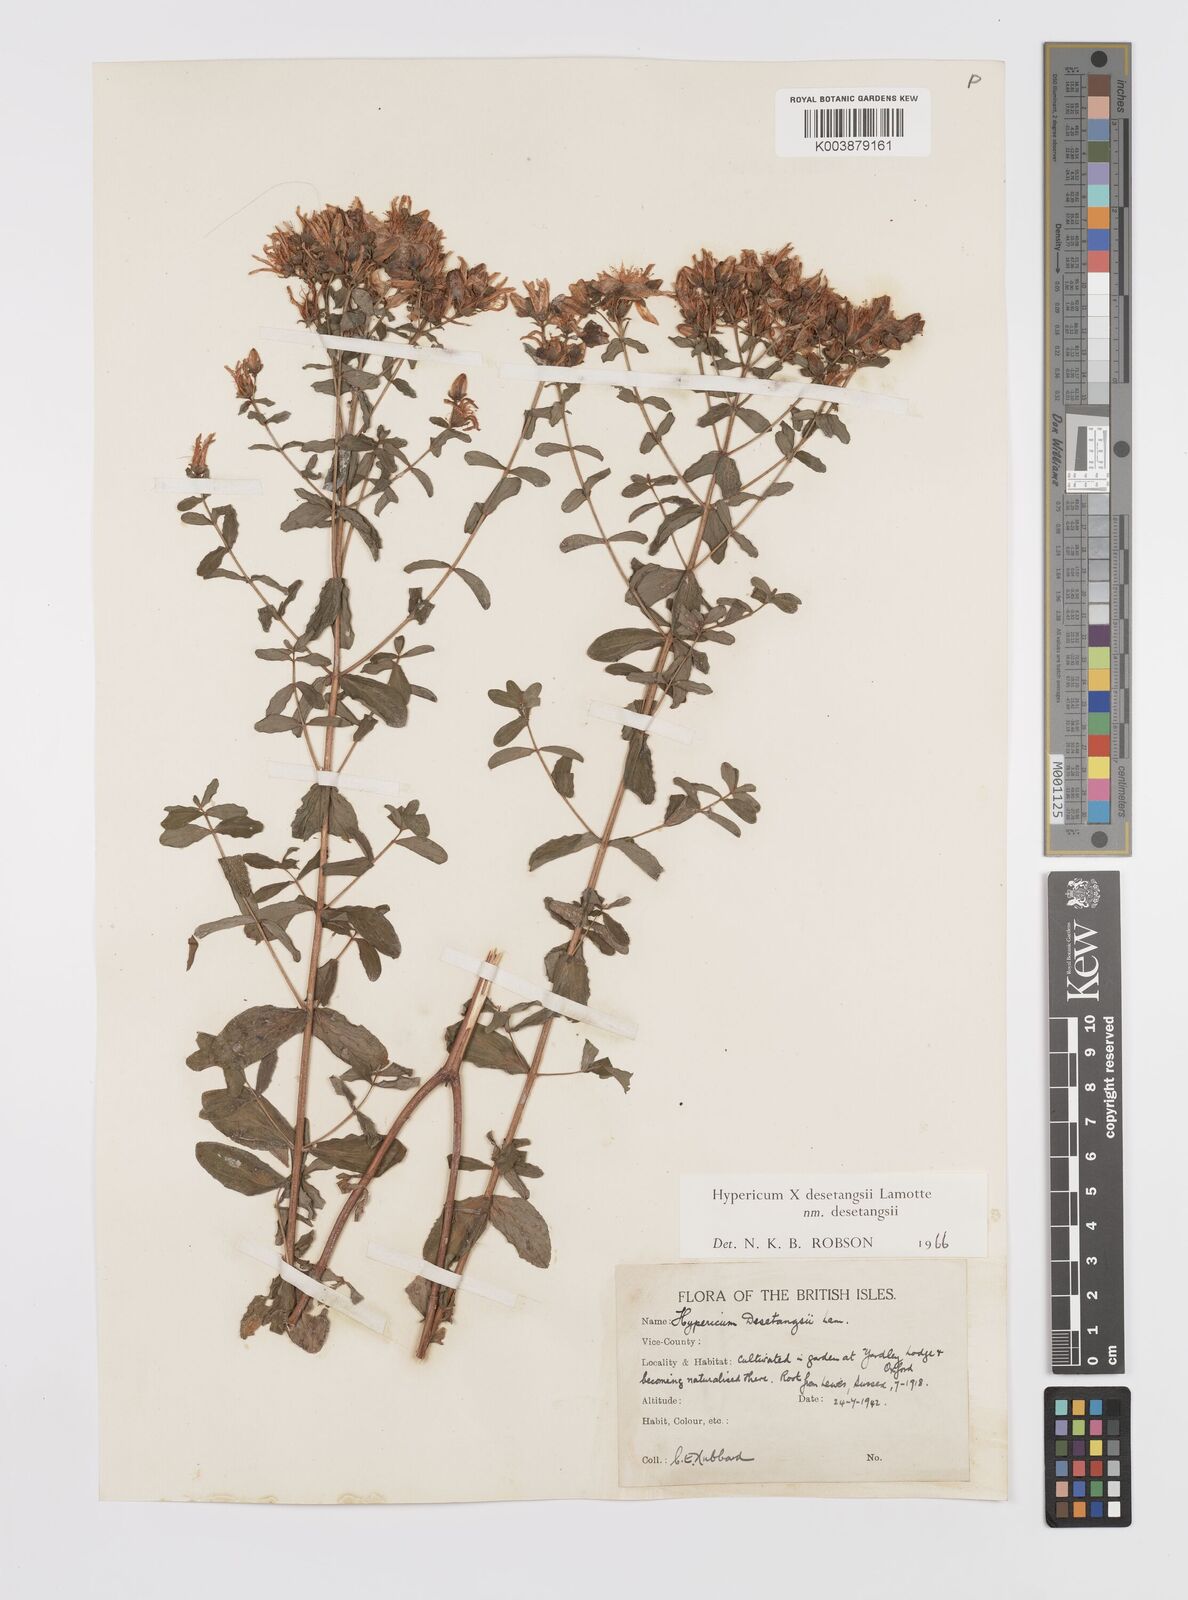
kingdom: Plantae
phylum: Tracheophyta
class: Magnoliopsida
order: Malpighiales
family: Hypericaceae
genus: Hypericum
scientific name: Hypericum desetangsii
